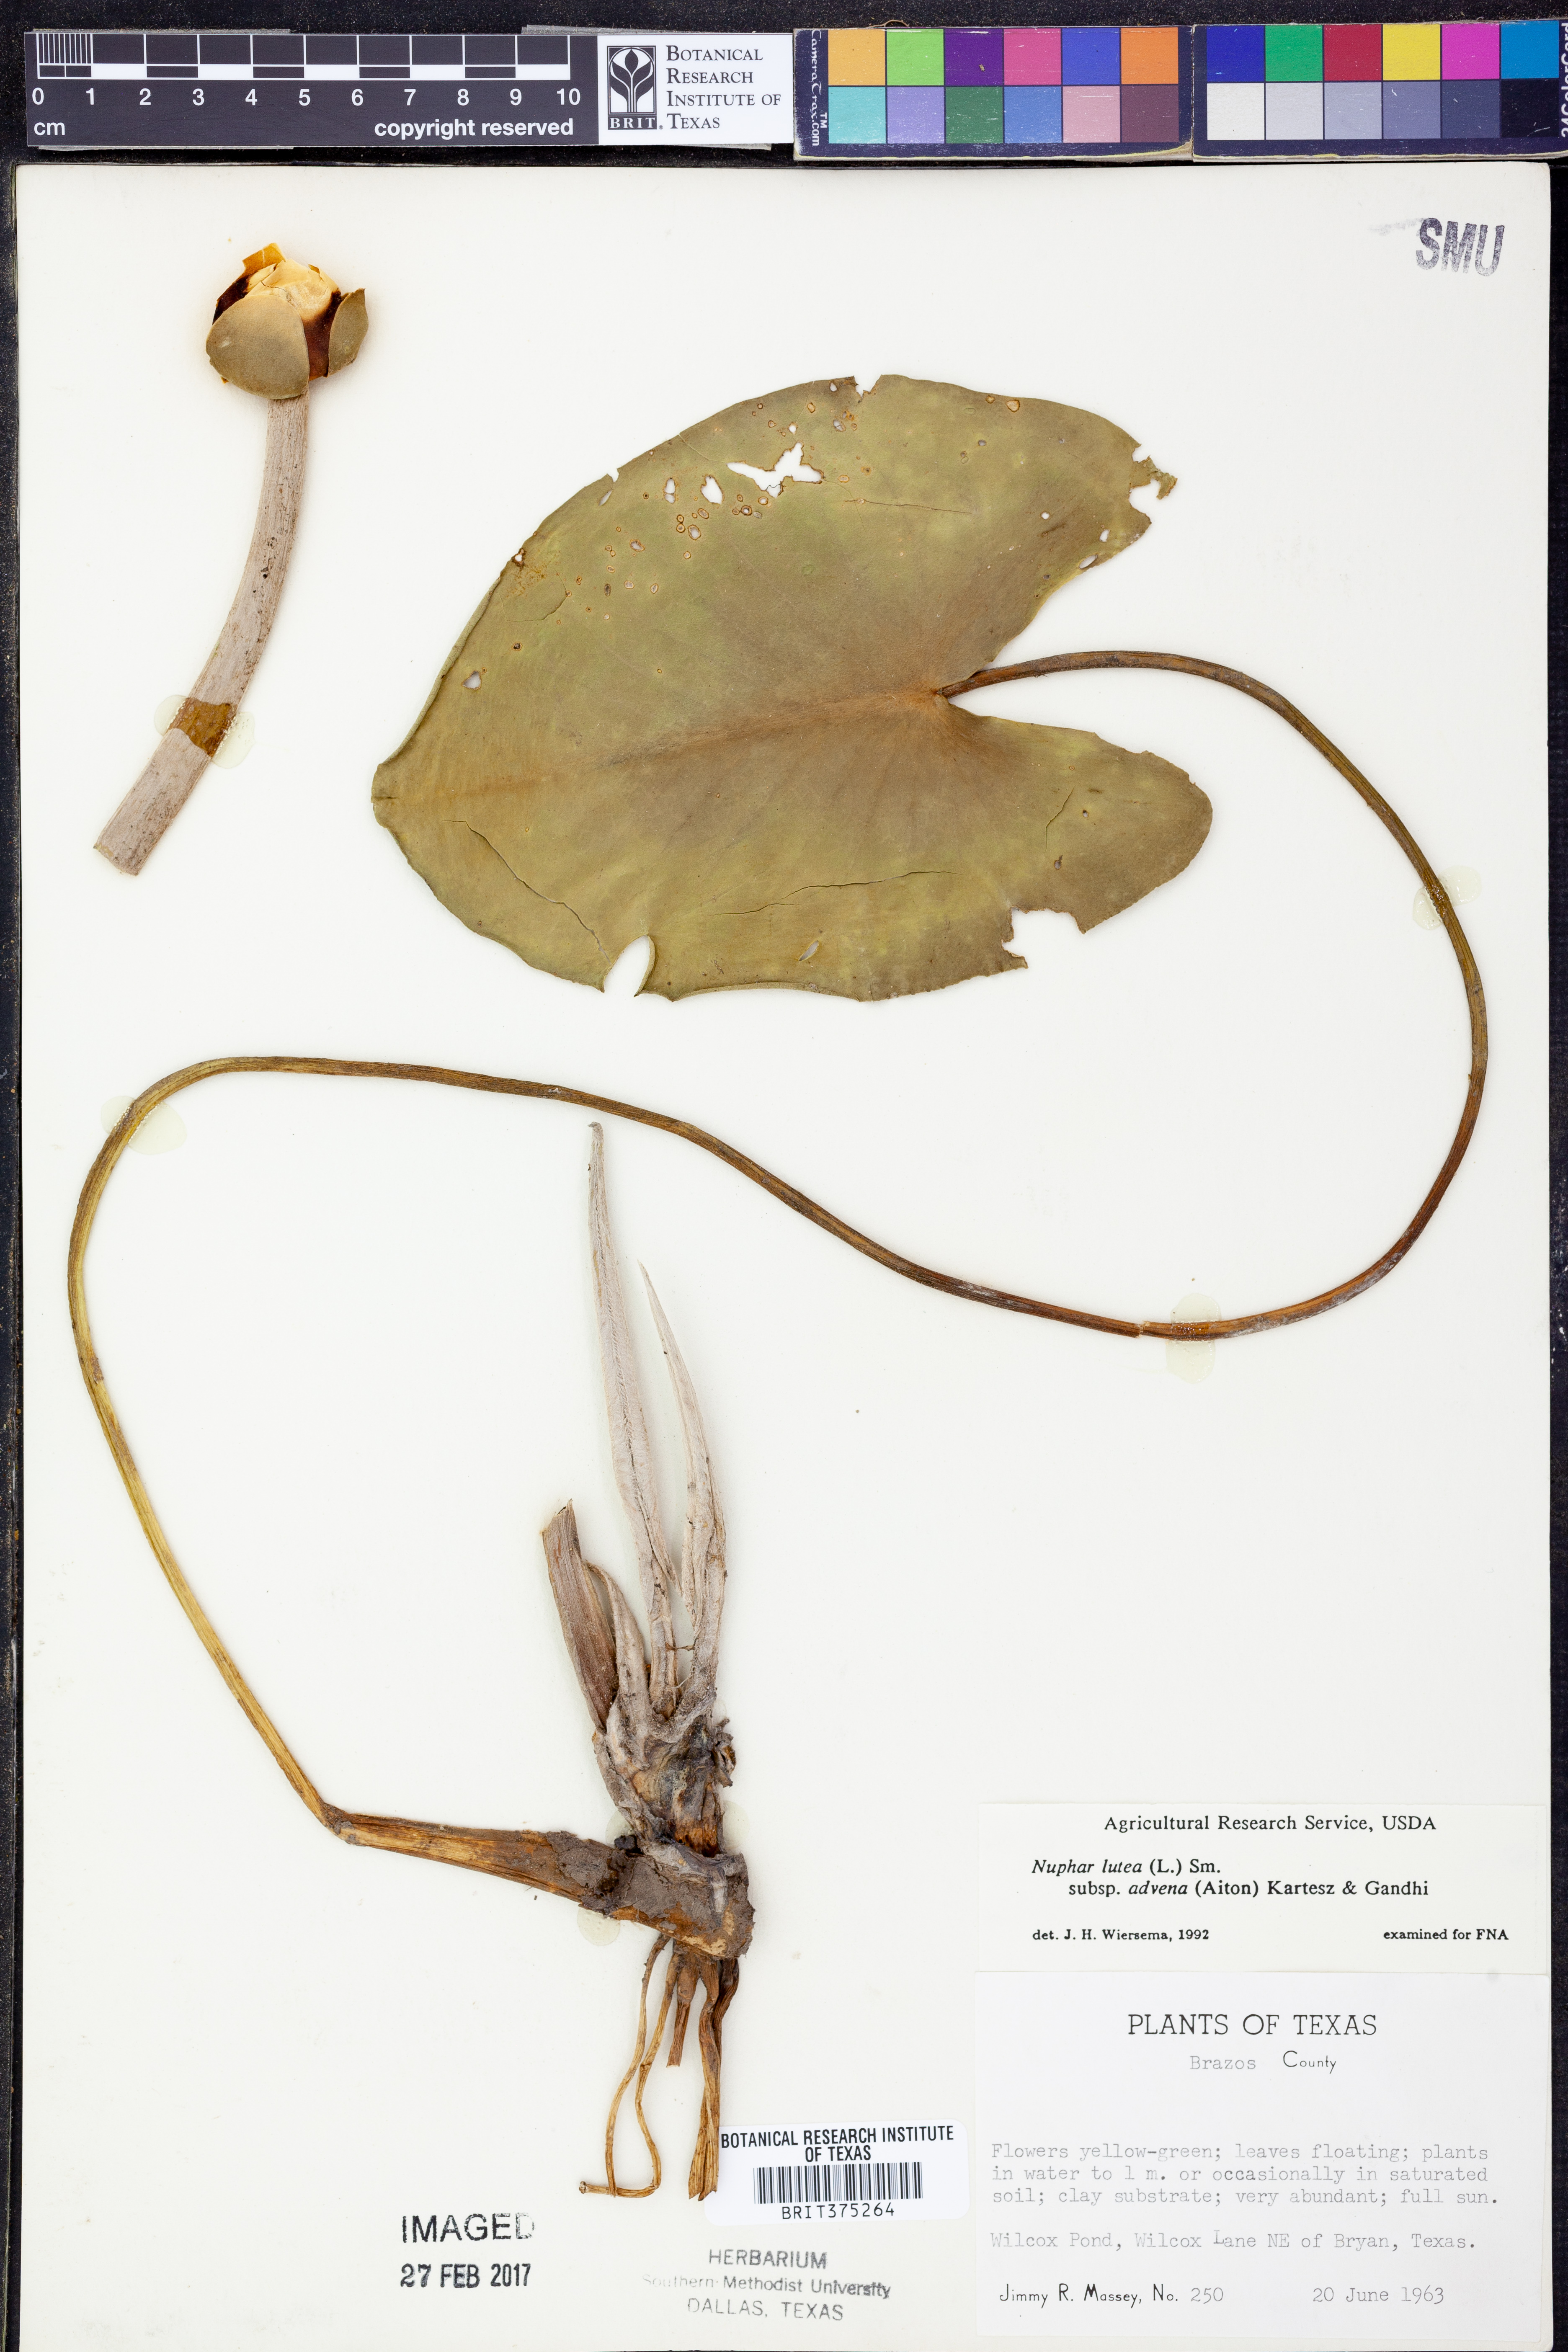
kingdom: Plantae
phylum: Tracheophyta
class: Magnoliopsida
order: Nymphaeales
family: Nymphaeaceae
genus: Nuphar
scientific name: Nuphar advena
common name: Spatter-dock
